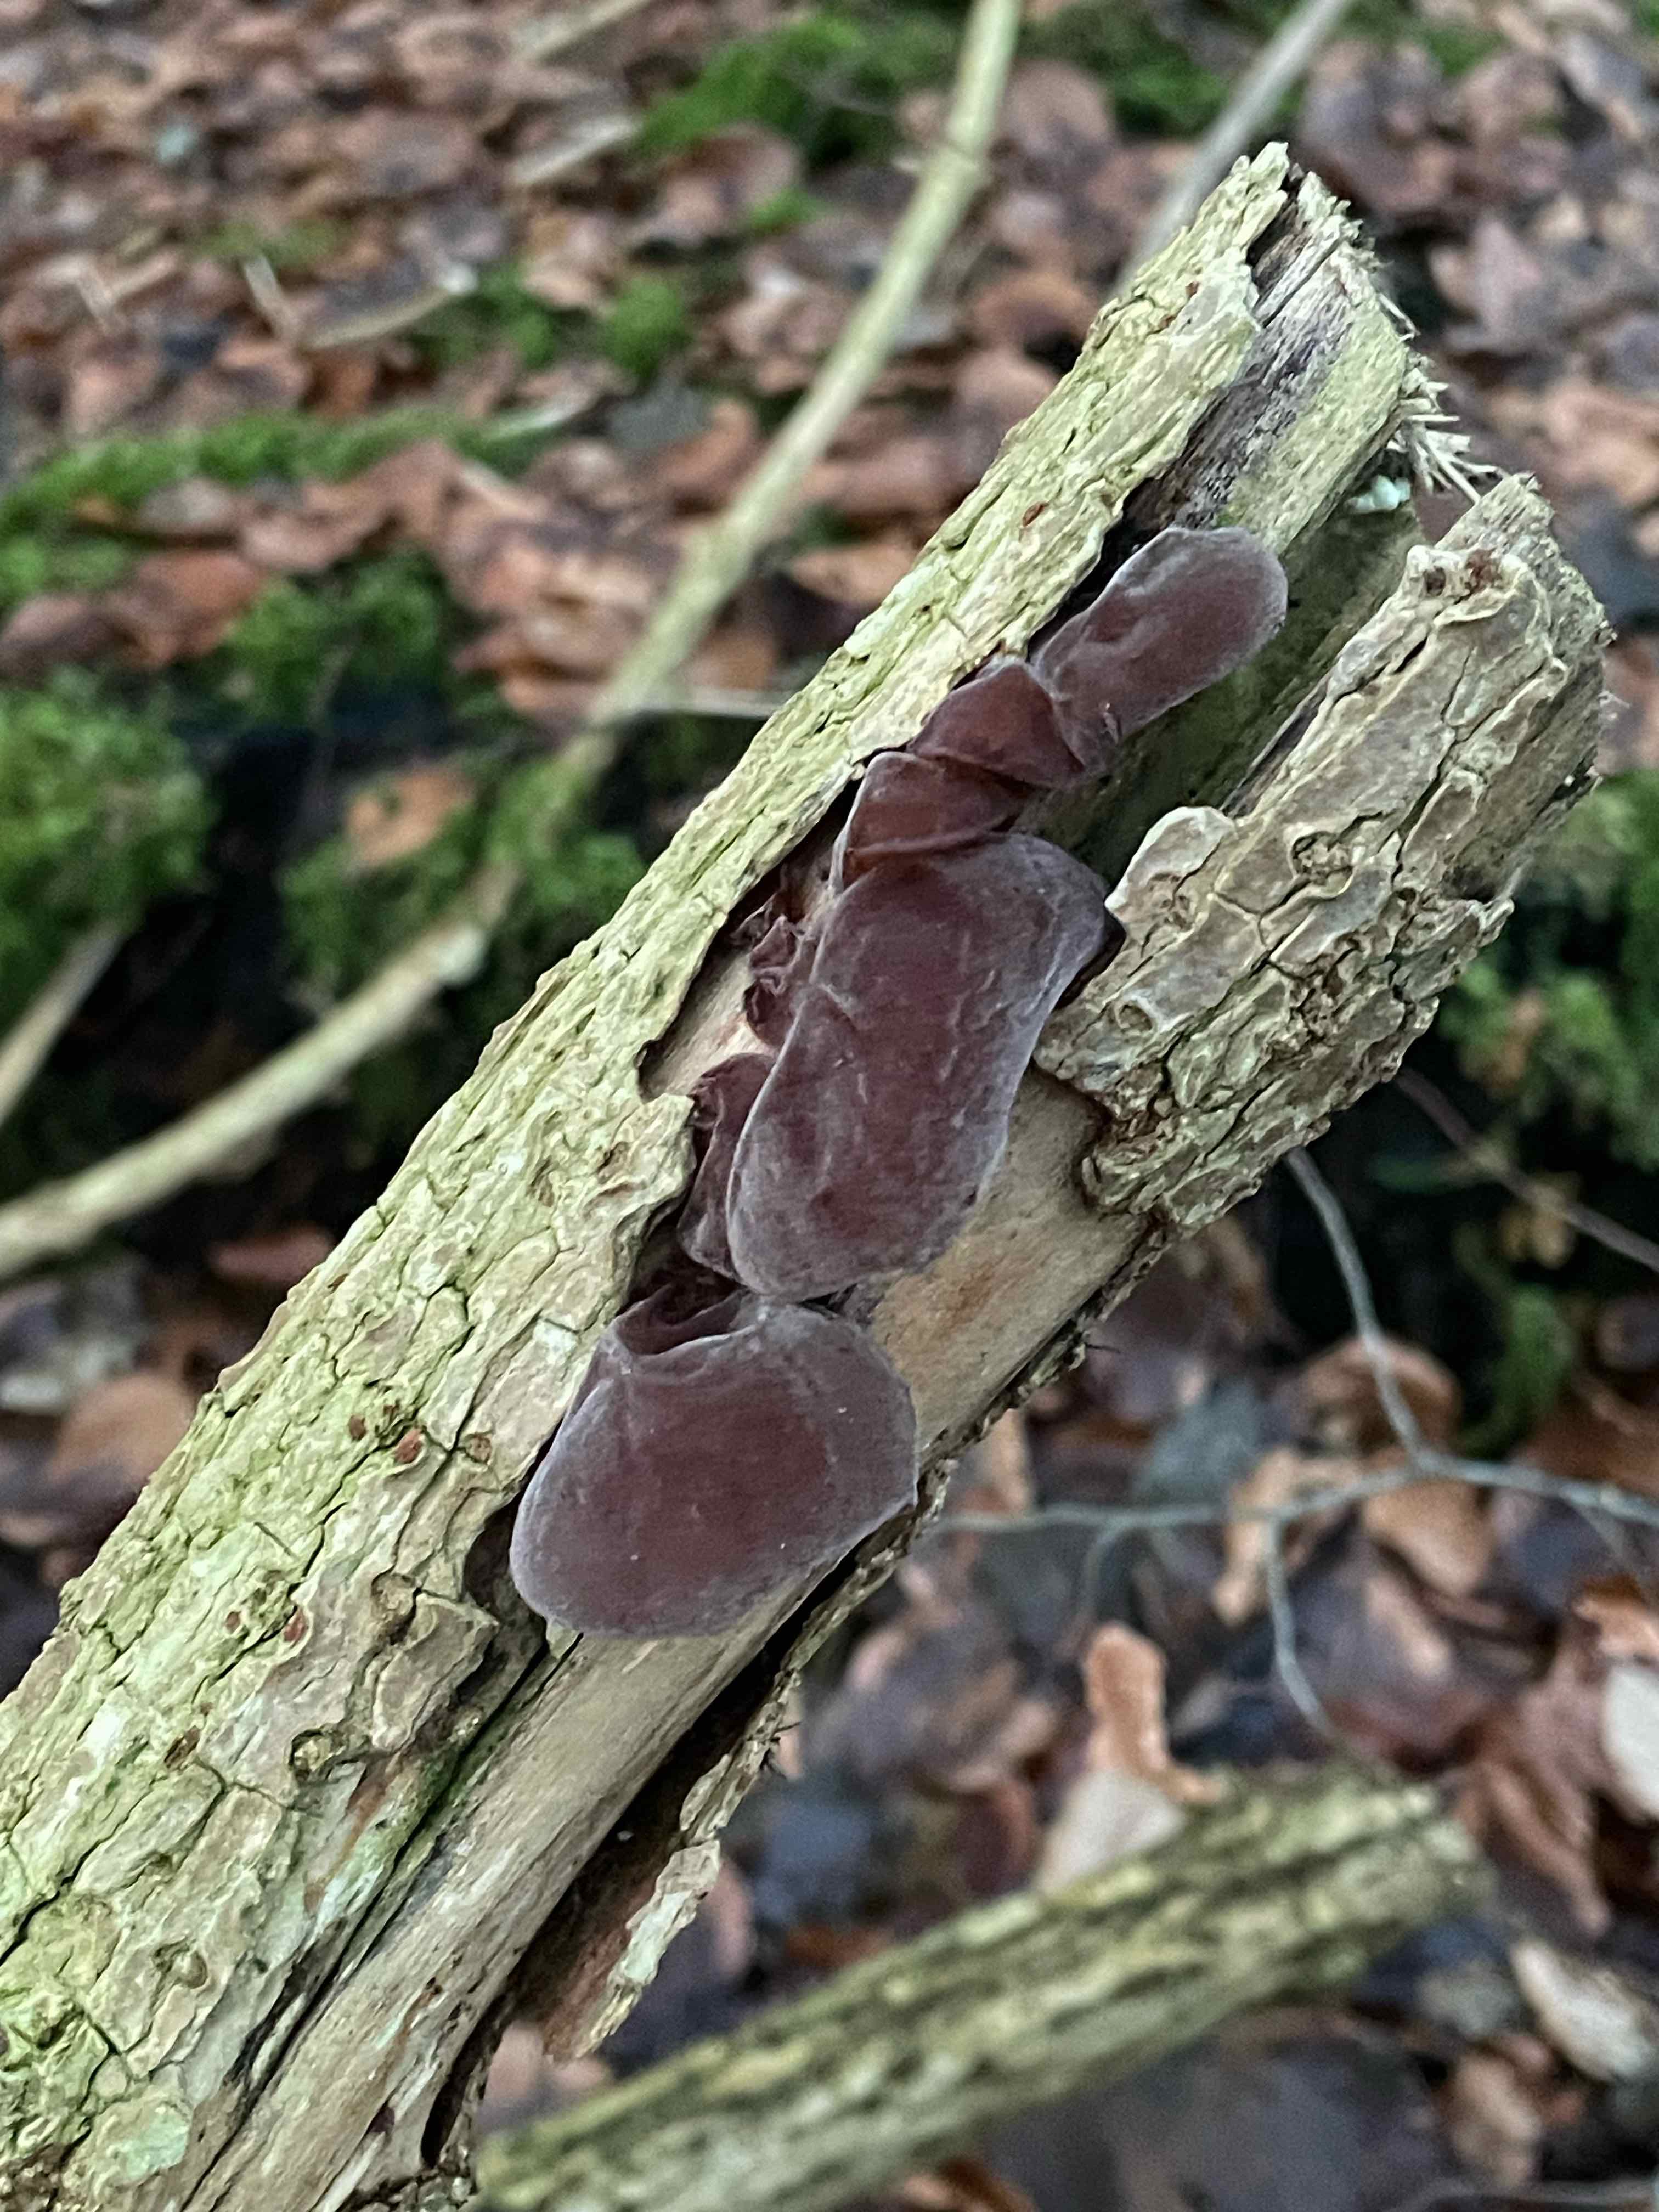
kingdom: Fungi
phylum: Basidiomycota
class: Agaricomycetes
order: Auriculariales
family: Auriculariaceae
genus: Auricularia
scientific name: Auricularia auricula-judae
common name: almindelig judasøre
